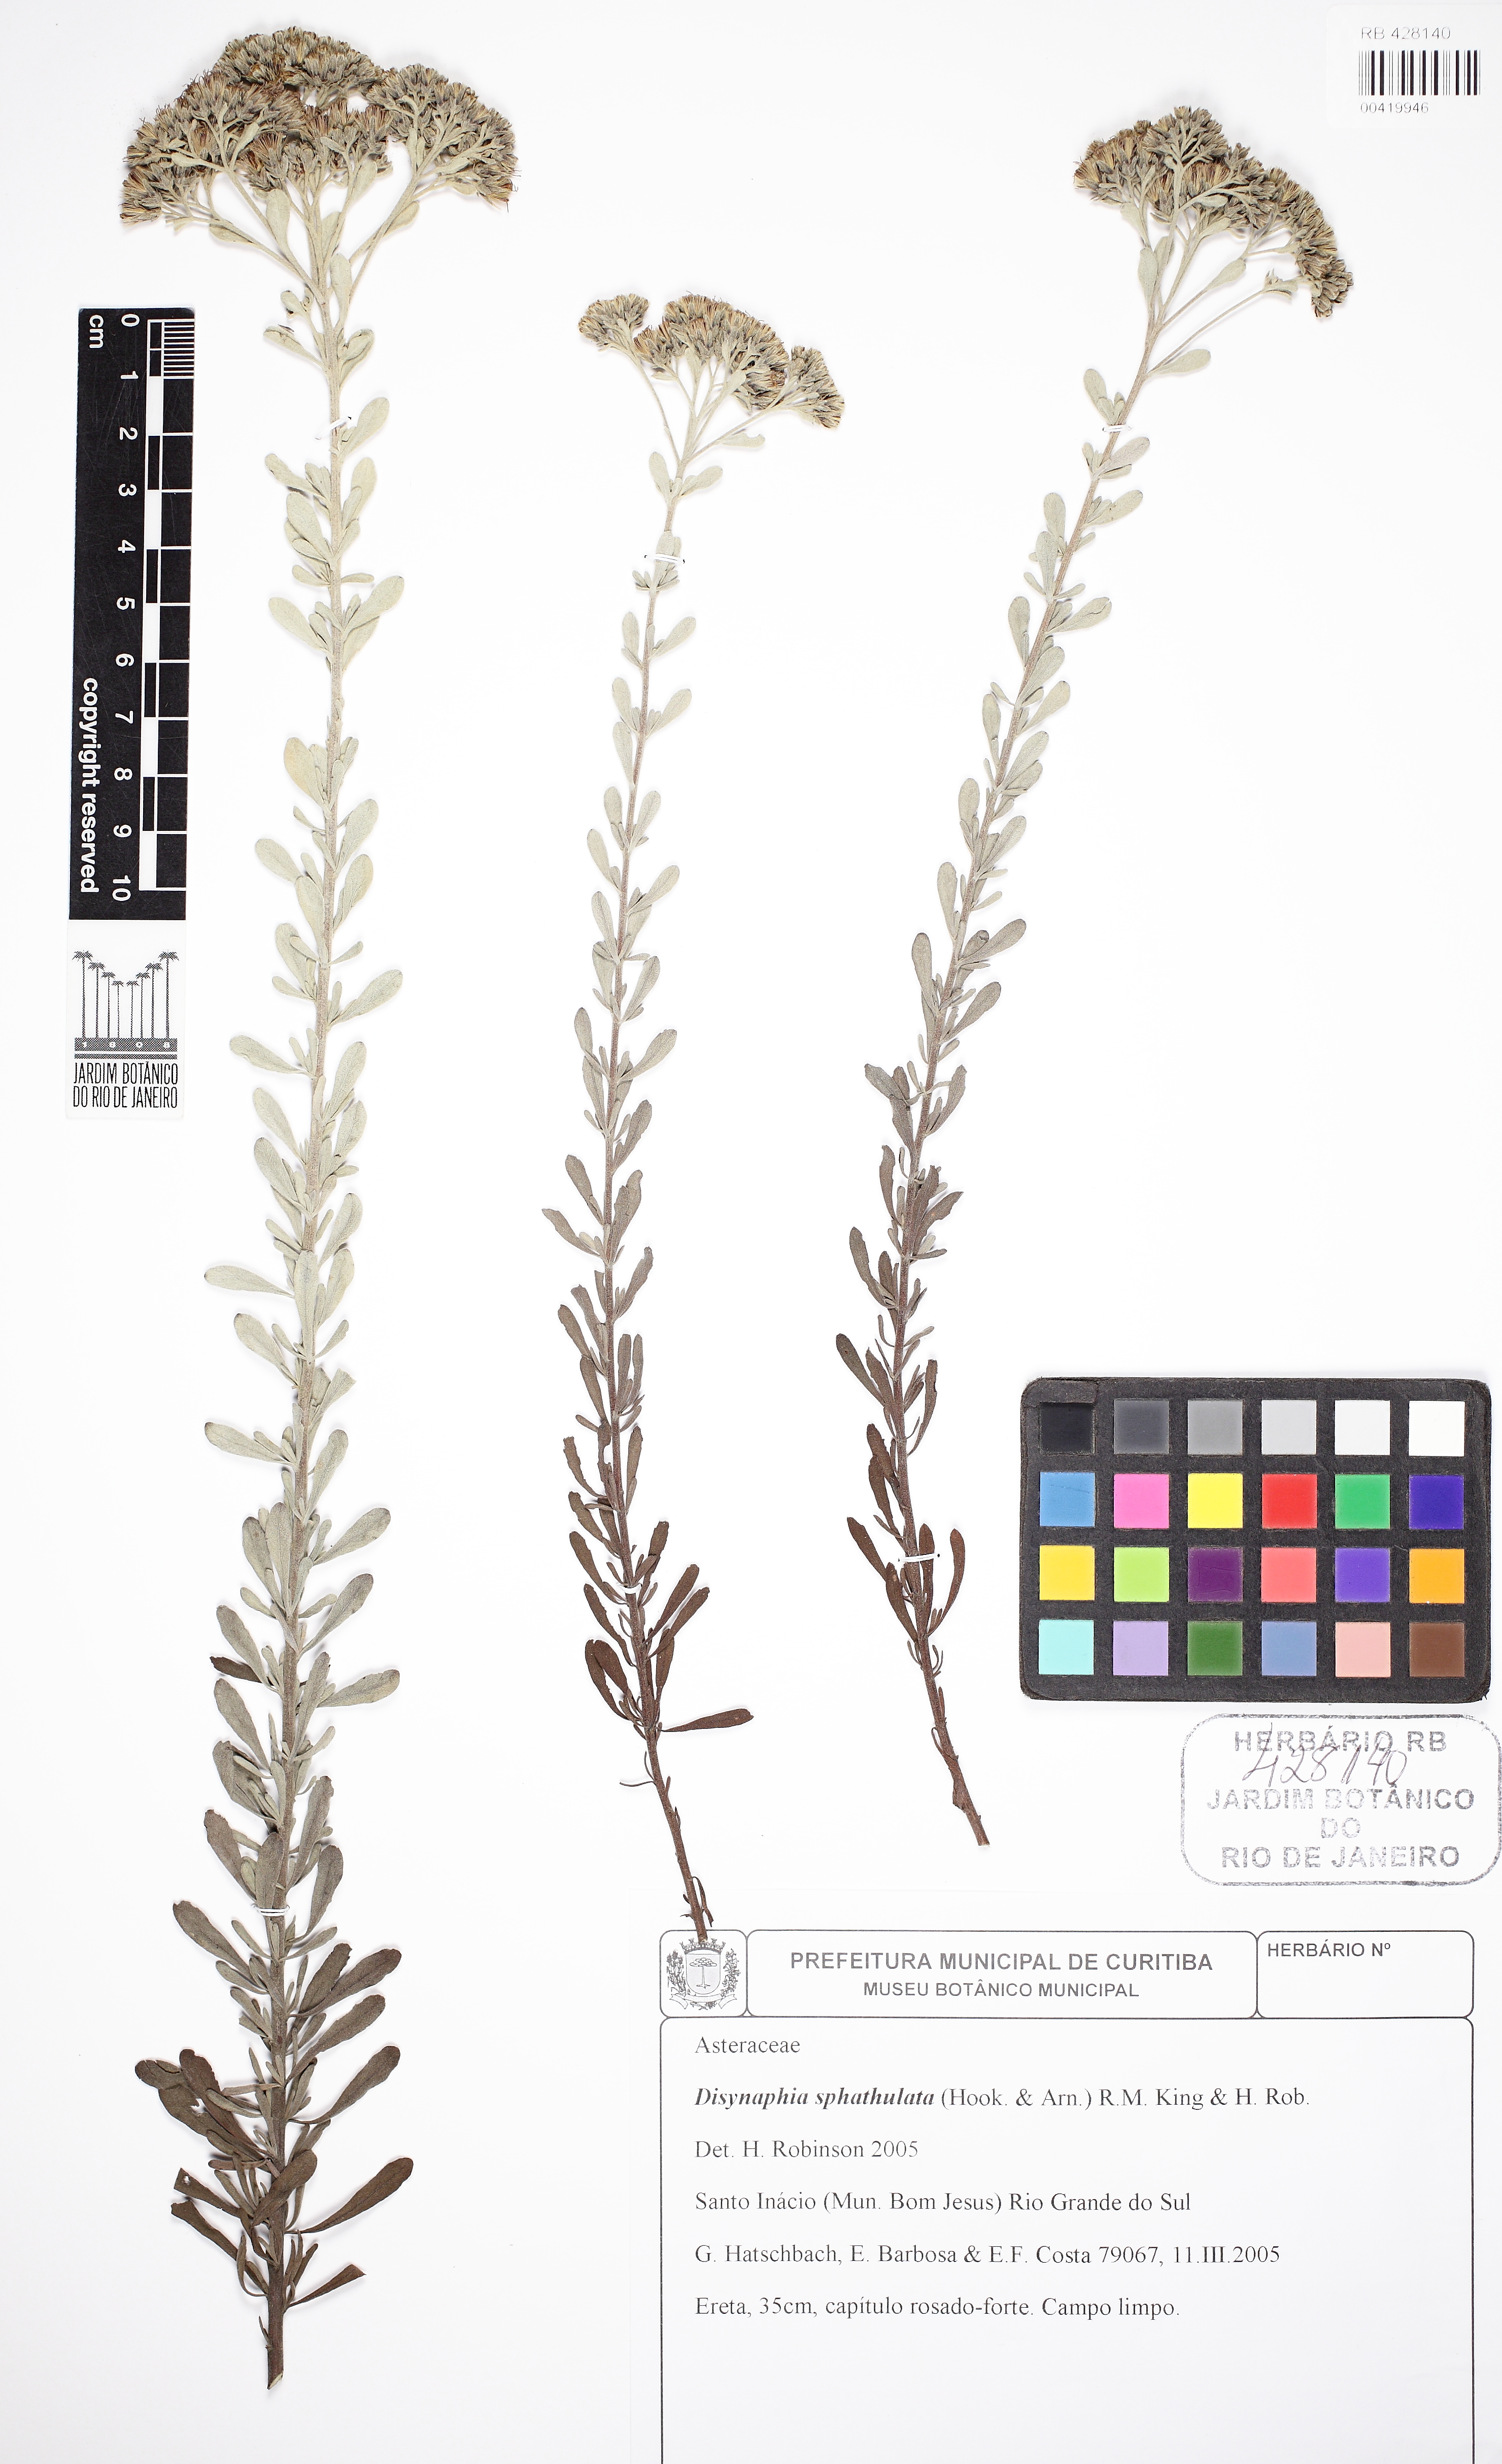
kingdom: Plantae
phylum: Tracheophyta
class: Magnoliopsida
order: Asterales
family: Asteraceae
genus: Disynaphia
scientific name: Disynaphia spathulata
